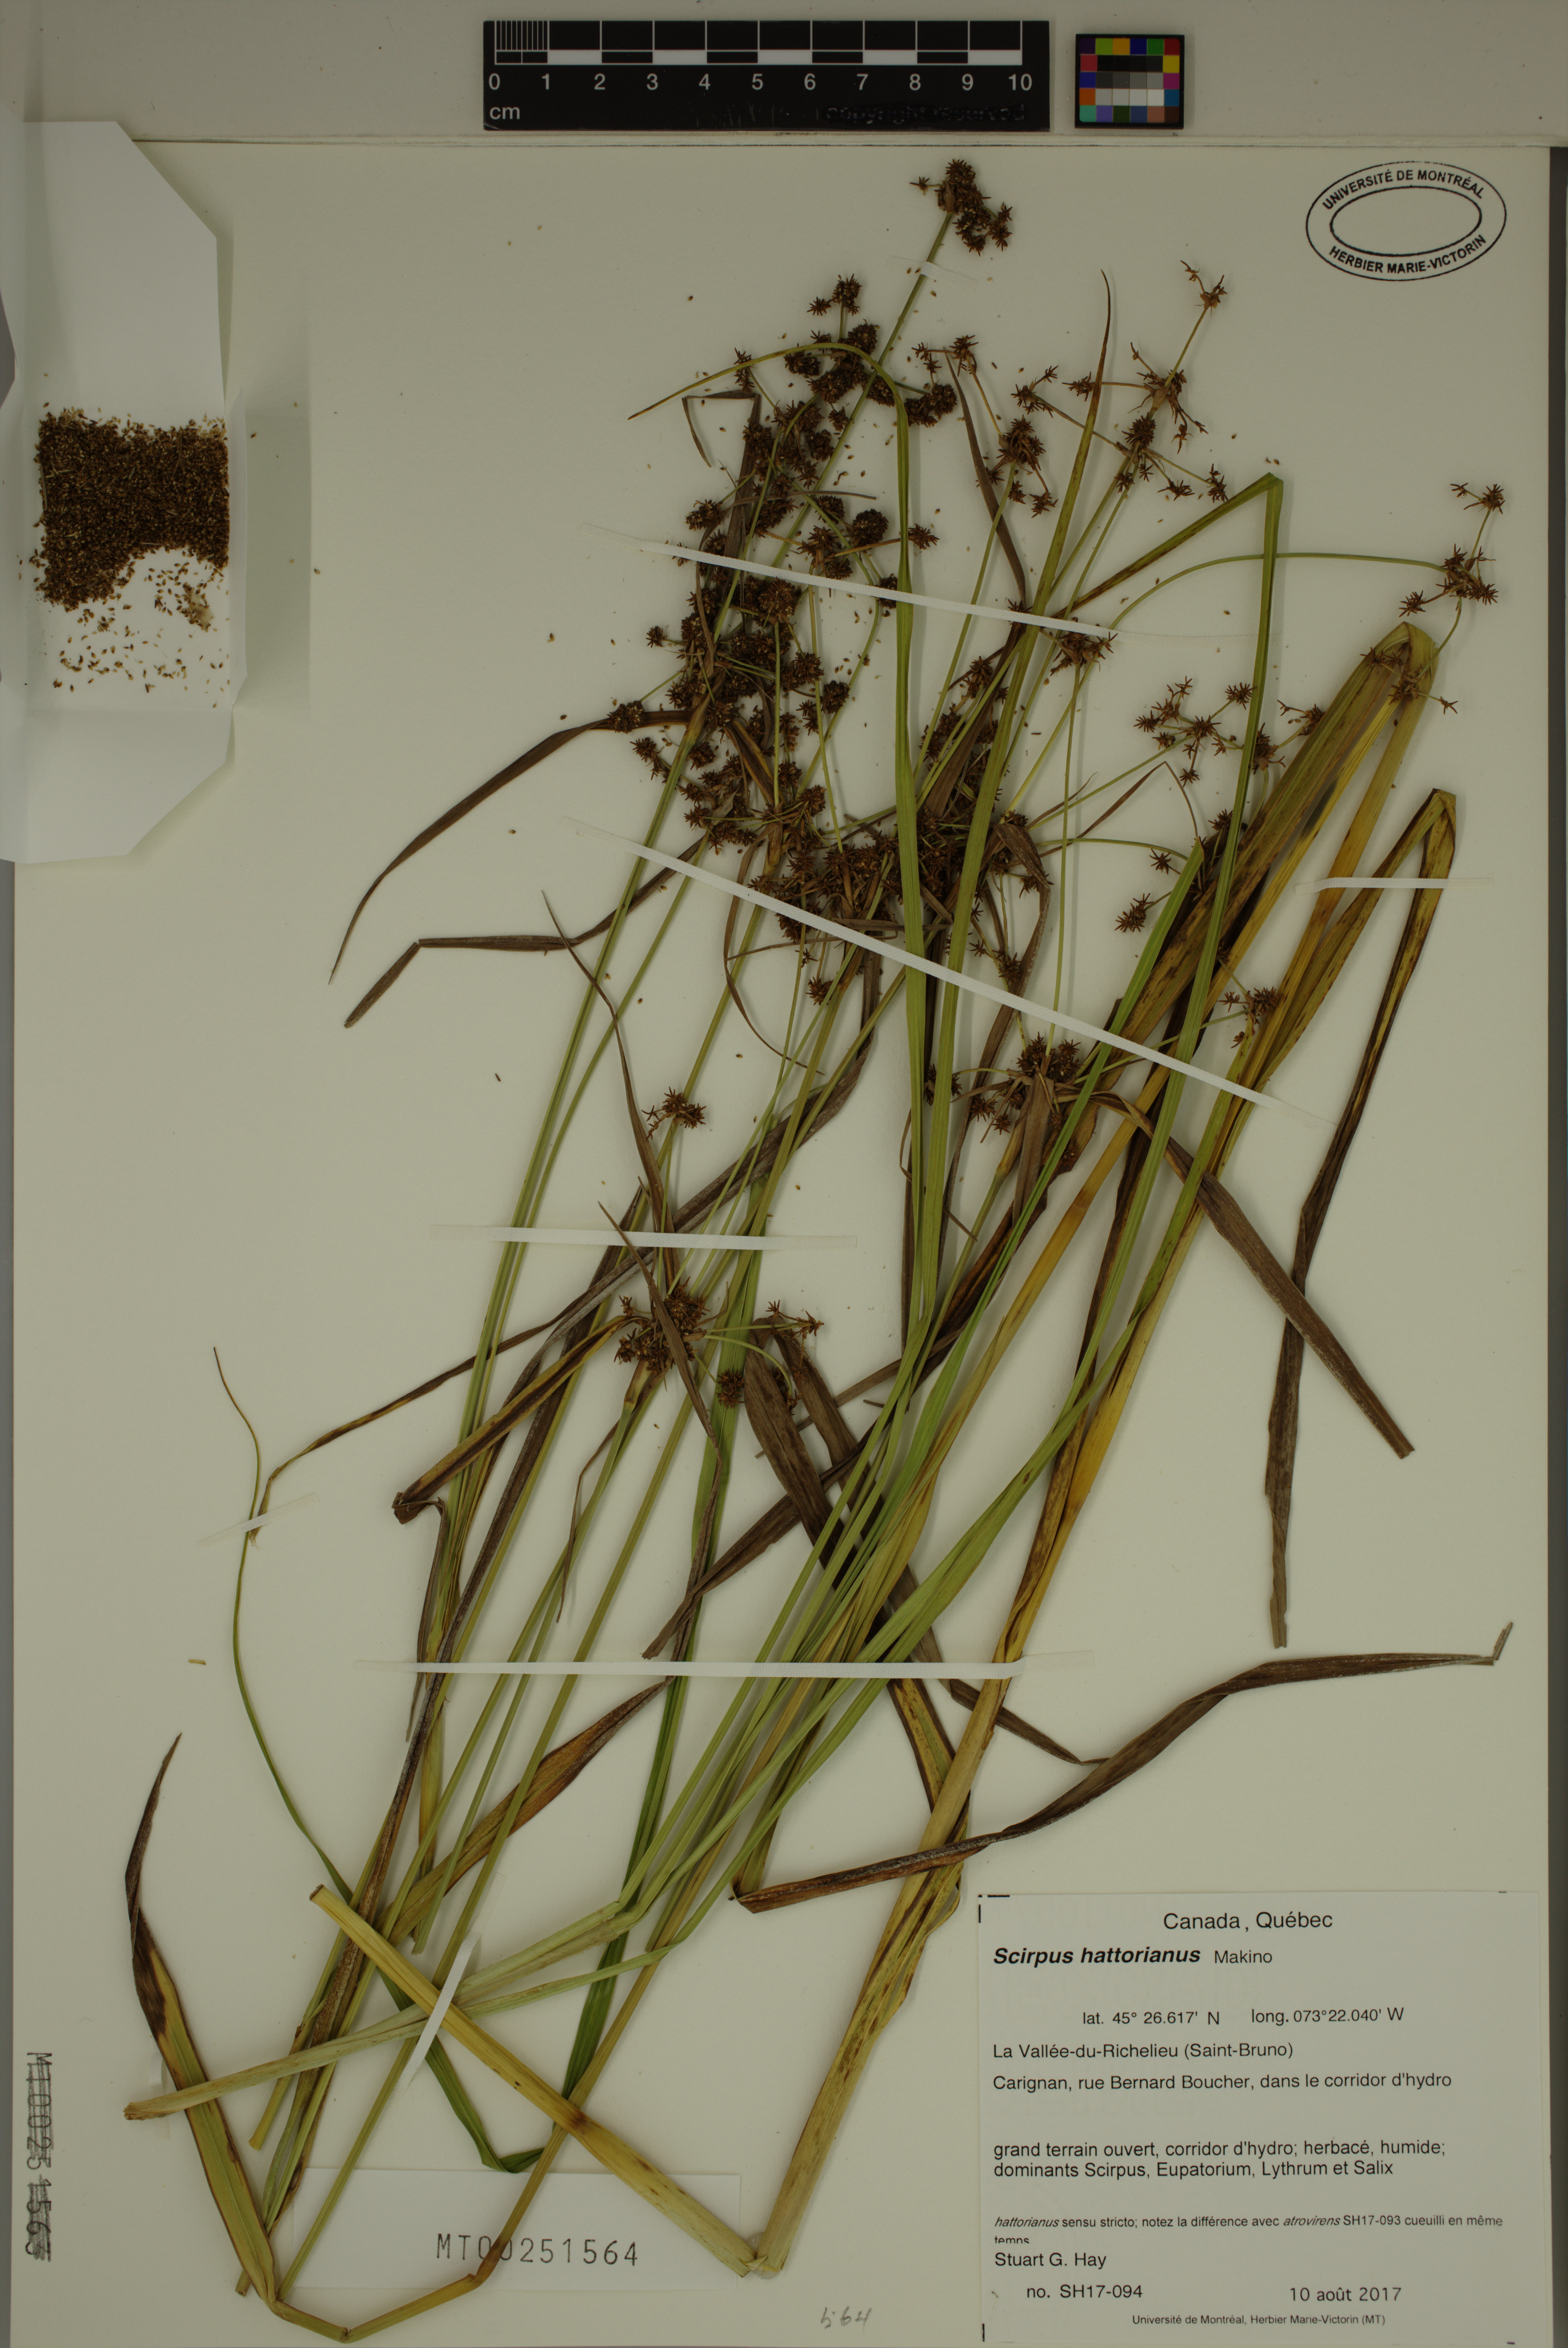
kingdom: Plantae
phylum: Tracheophyta
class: Liliopsida
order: Poales
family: Cyperaceae
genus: Scirpus
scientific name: Scirpus hattorianus
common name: Early dark-green bulrush
